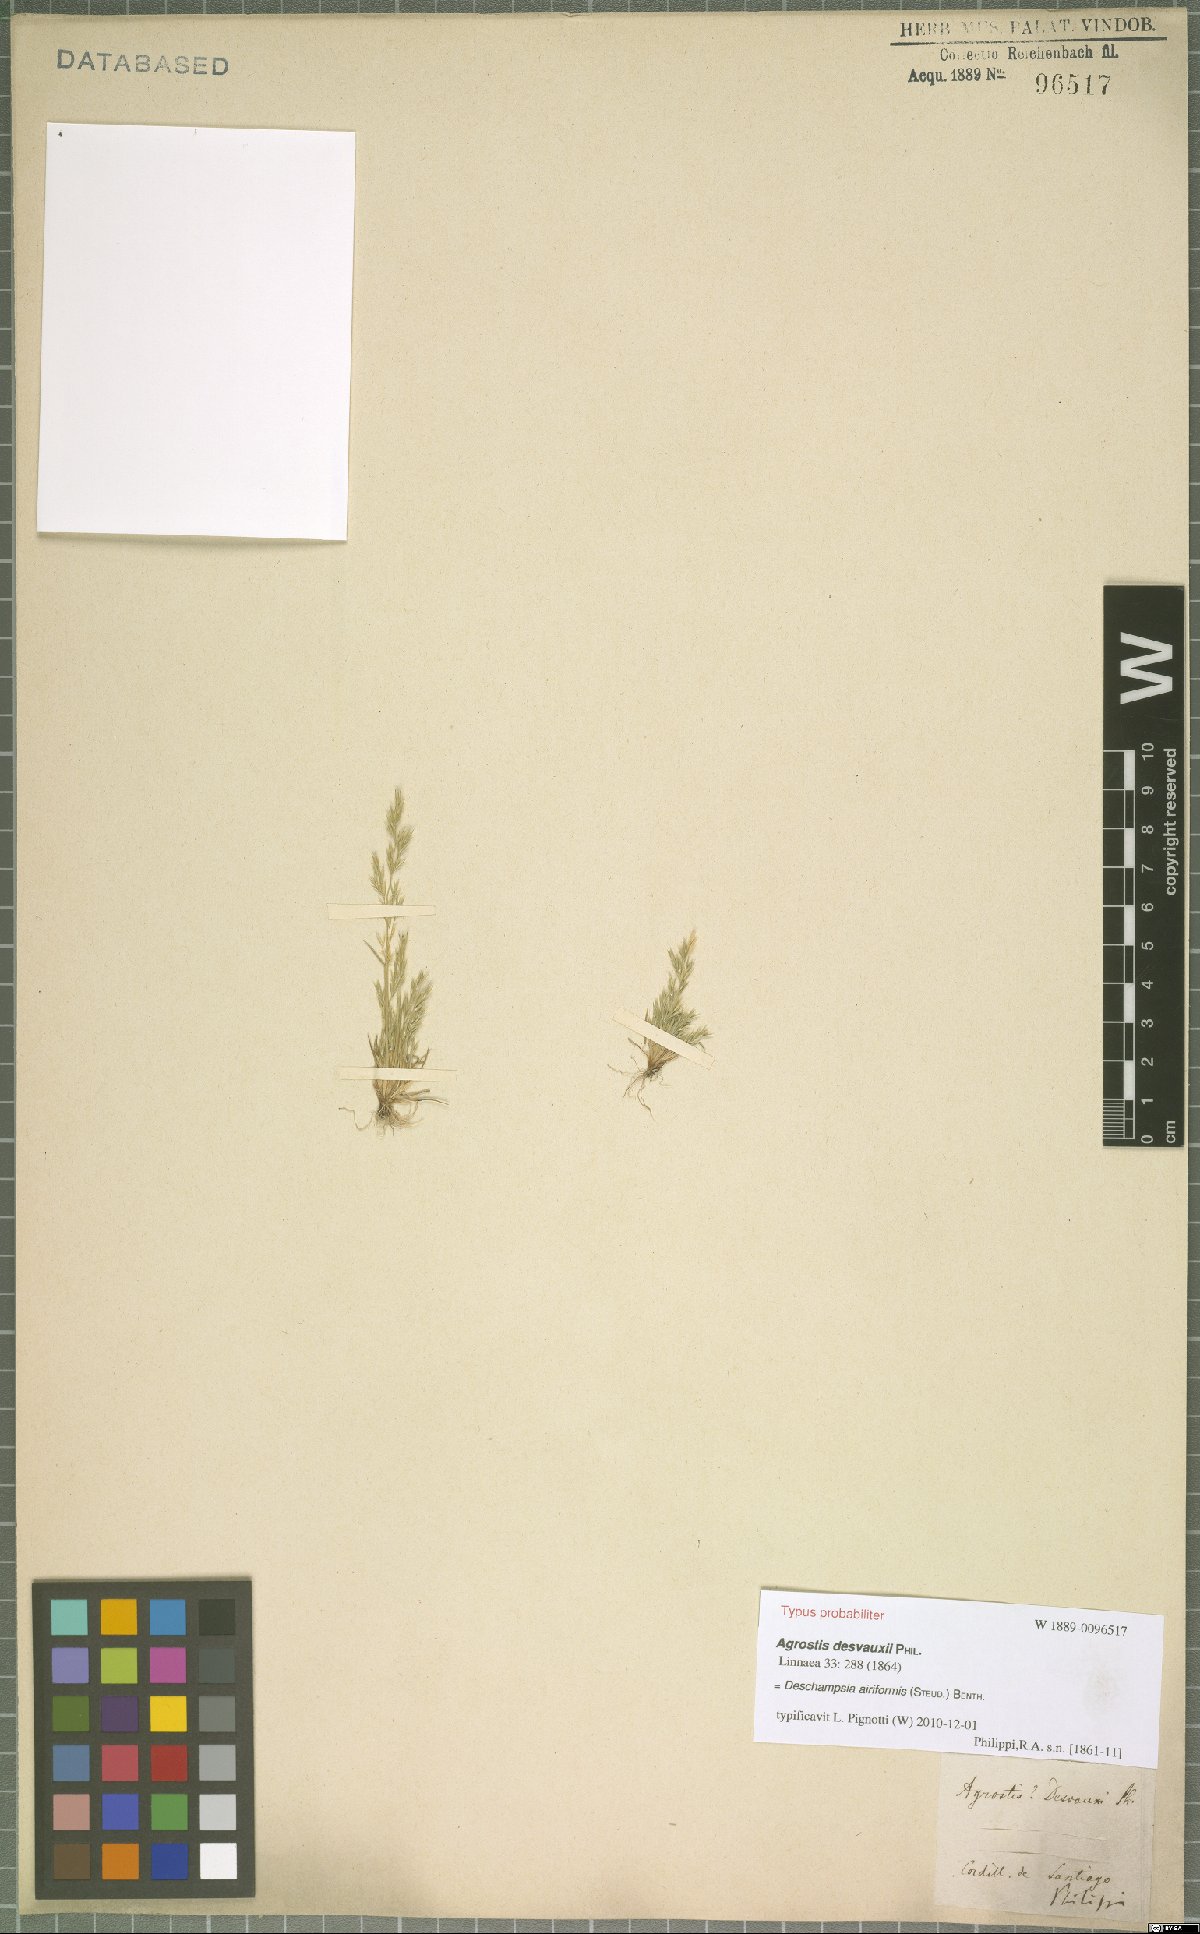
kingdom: Plantae
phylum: Tracheophyta
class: Liliopsida
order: Poales
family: Poaceae
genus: Deschampsia
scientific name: Deschampsia airiformis
